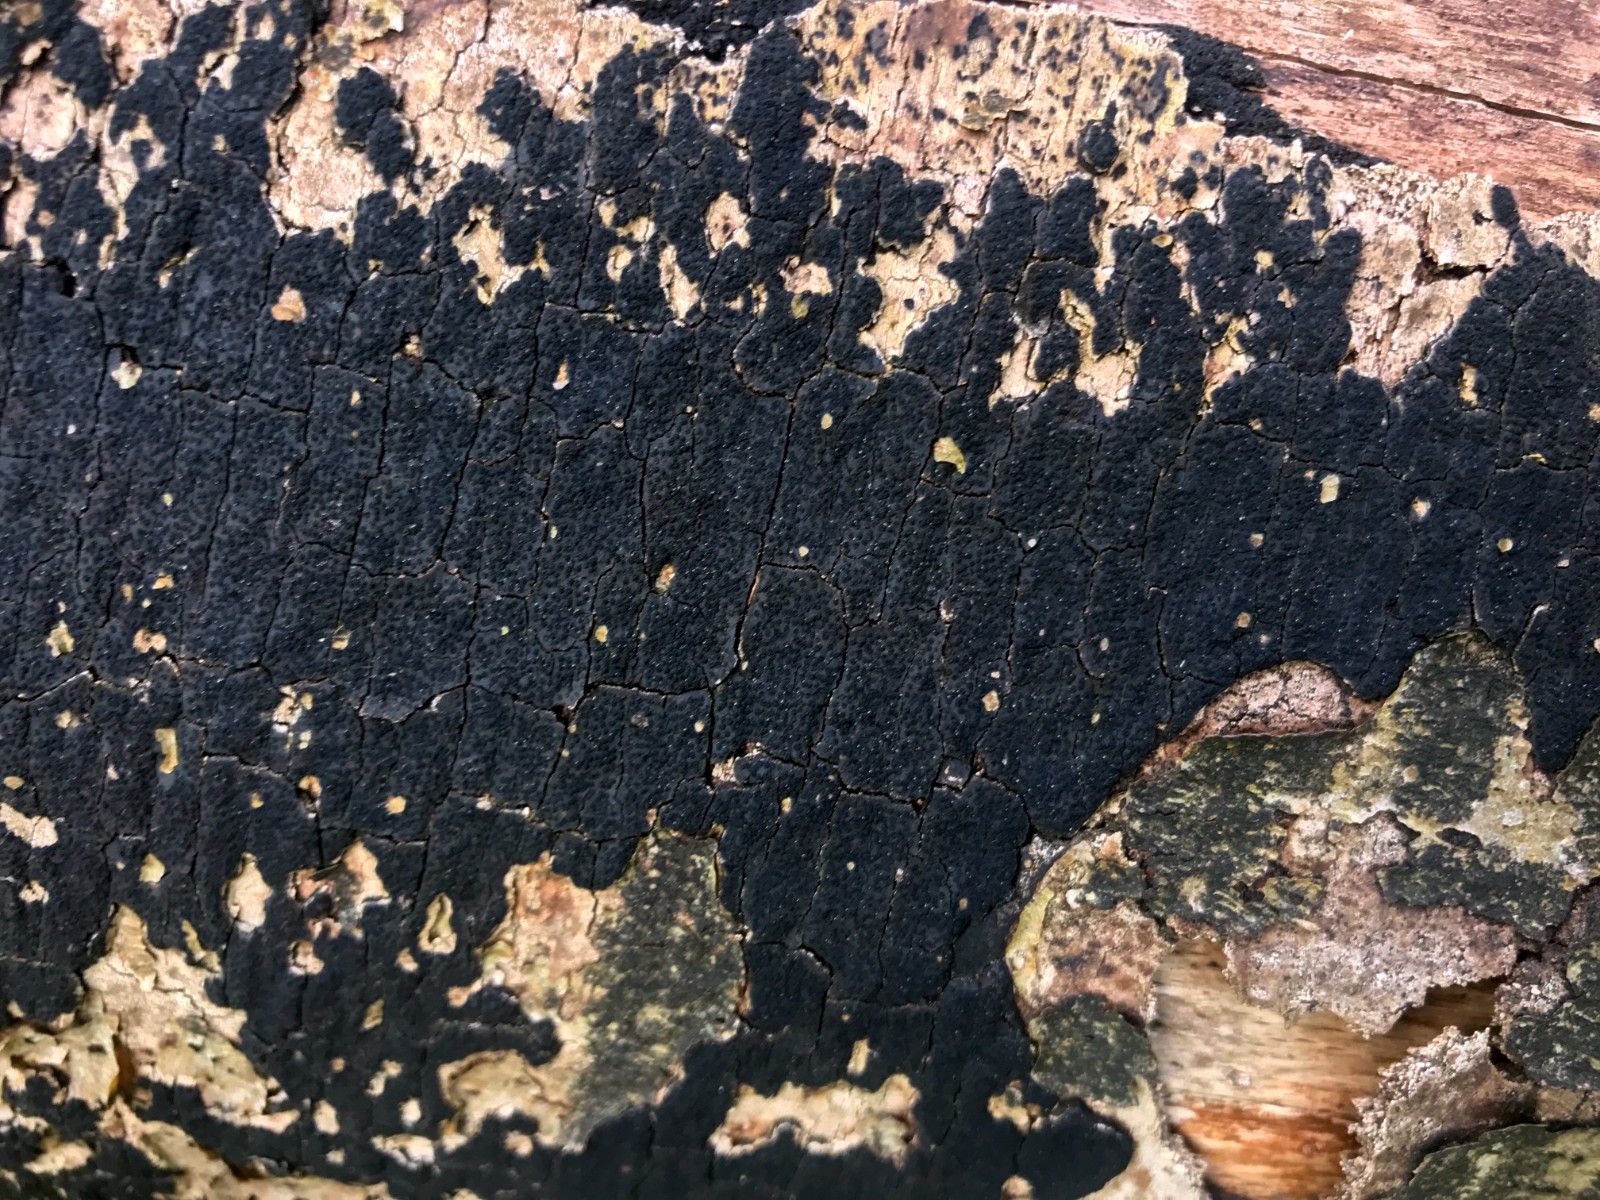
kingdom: Fungi
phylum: Ascomycota
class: Sordariomycetes
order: Xylariales
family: Diatrypaceae
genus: Eutypa
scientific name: Eutypa spinosa
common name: grov kulskorpe
